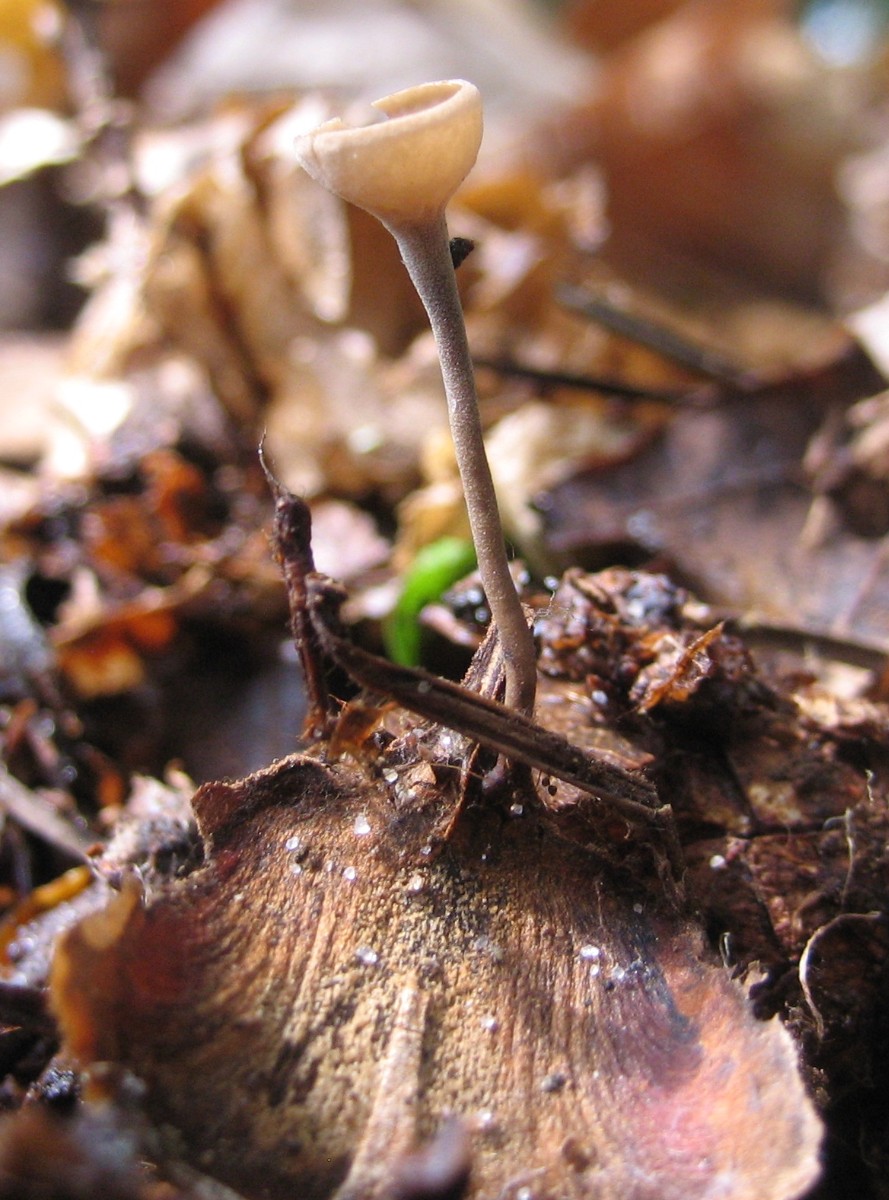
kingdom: Fungi
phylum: Ascomycota
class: Leotiomycetes
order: Helotiales
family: Sclerotiniaceae
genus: Ciboria
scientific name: Ciboria rufofusca
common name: kogleskæl-knoldskive
